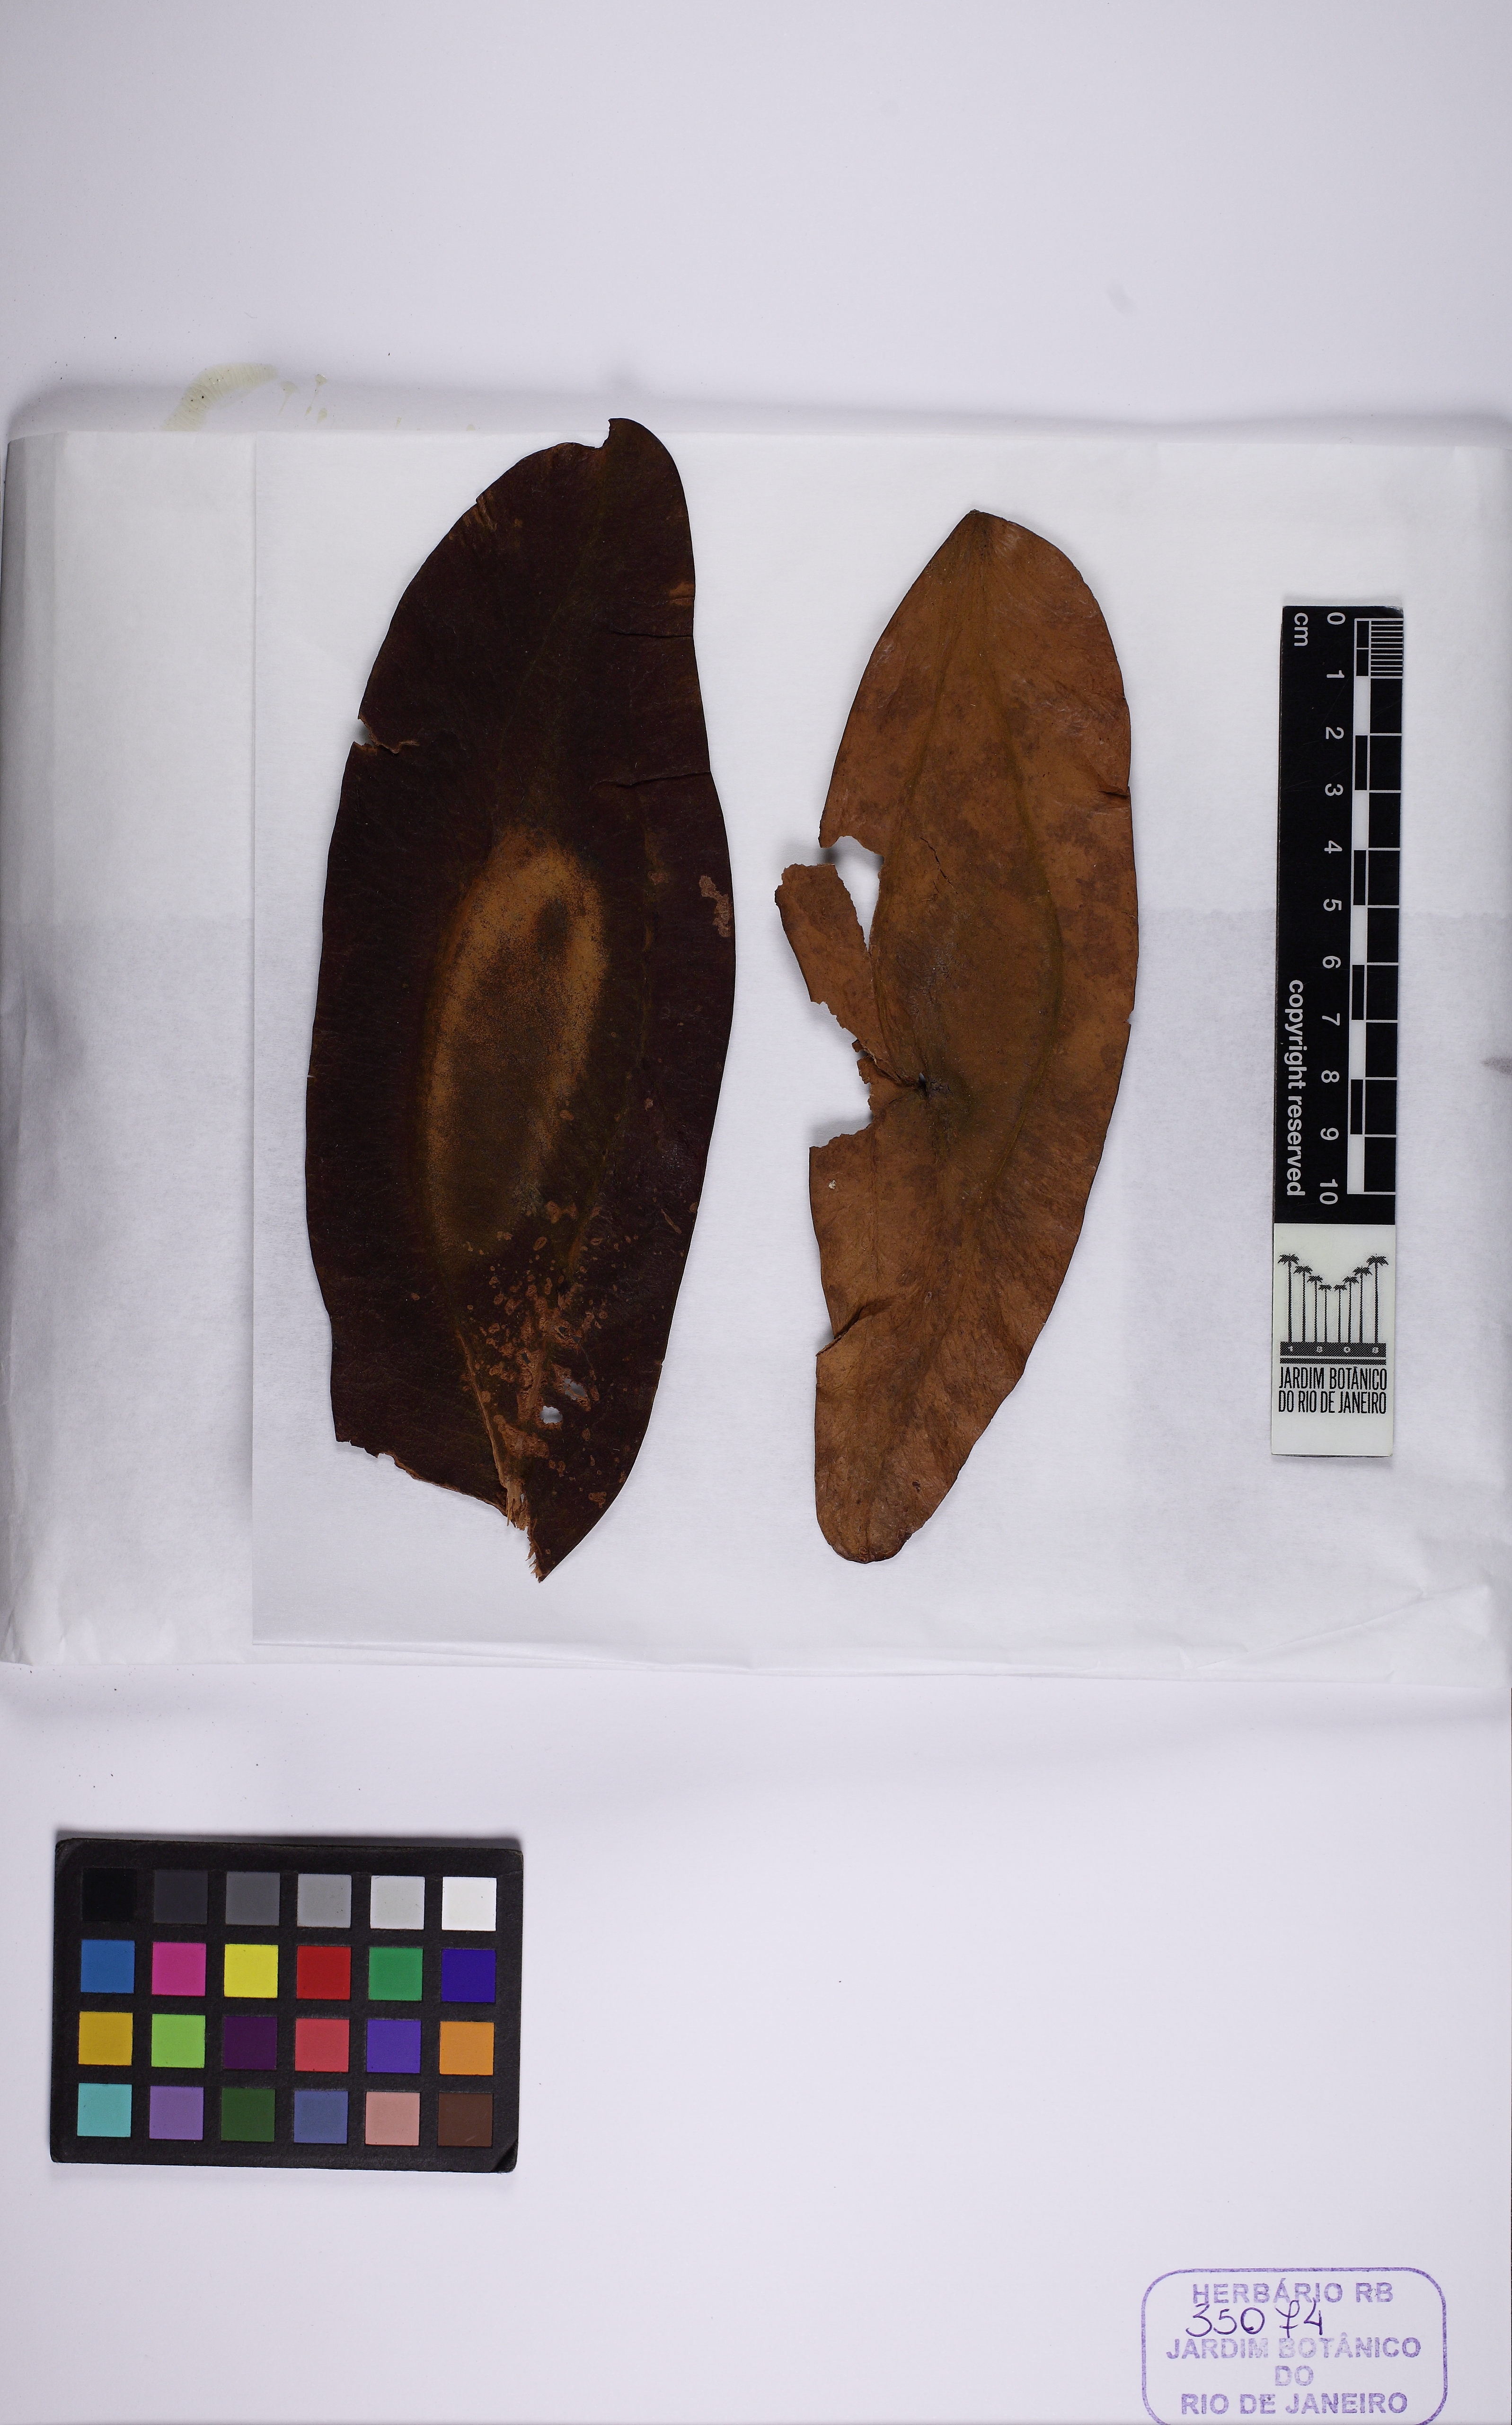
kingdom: Plantae
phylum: Tracheophyta
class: Magnoliopsida
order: Fabales
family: Fabaceae
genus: Martiodendron
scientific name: Martiodendron elatum
